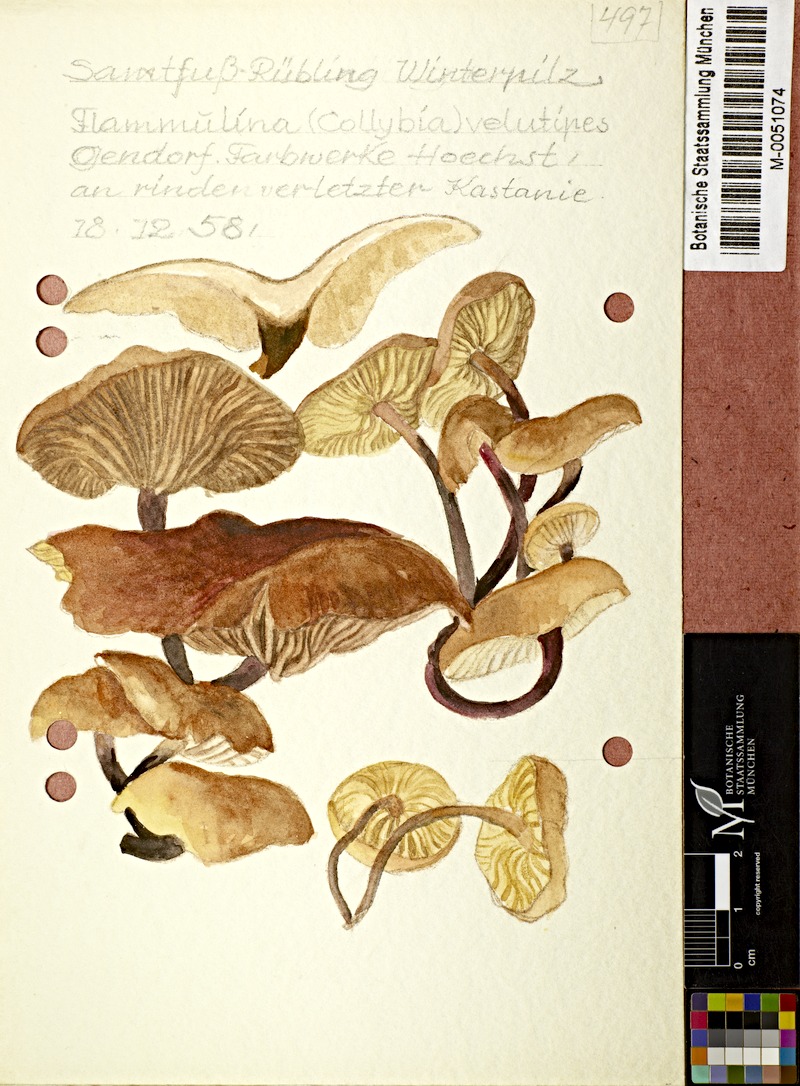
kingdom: Fungi
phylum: Basidiomycota
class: Agaricomycetes
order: Agaricales
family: Physalacriaceae
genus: Flammulina
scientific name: Flammulina velutipes
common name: Velvet shank
